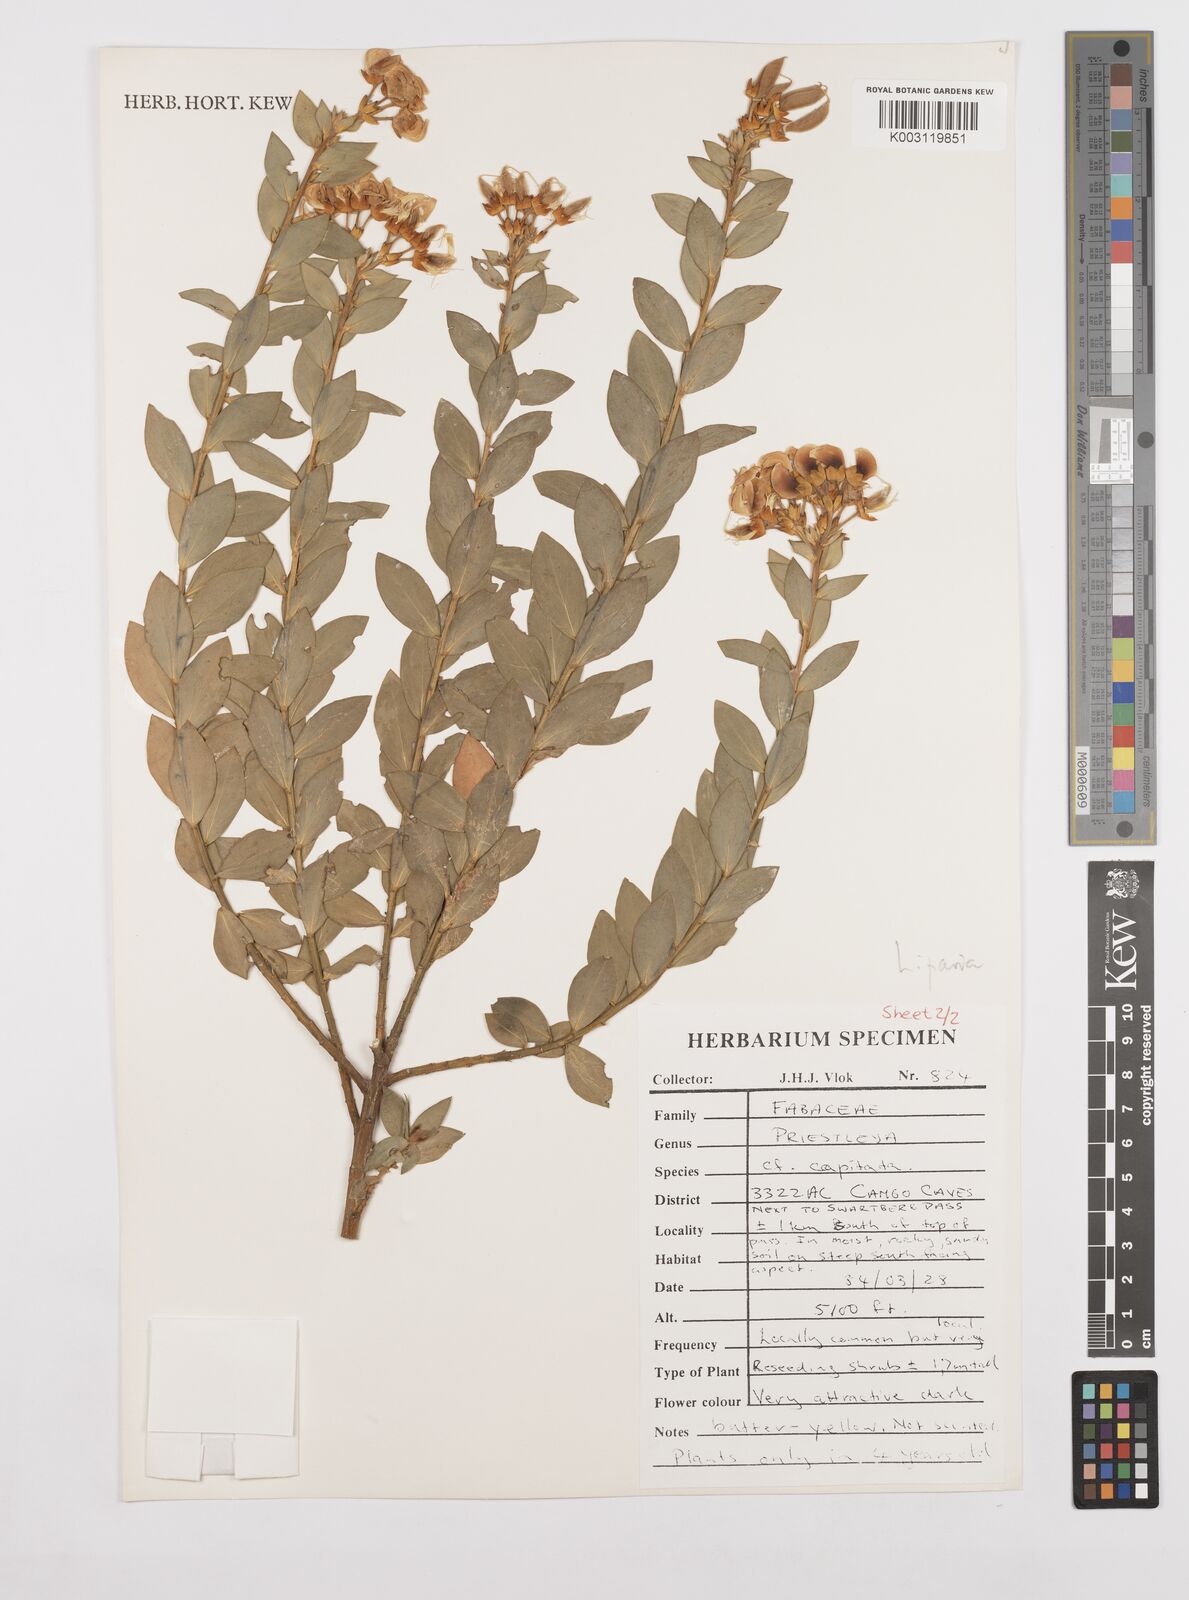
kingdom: Plantae
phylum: Tracheophyta
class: Magnoliopsida
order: Fabales
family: Fabaceae
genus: Liparia
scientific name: Liparia
